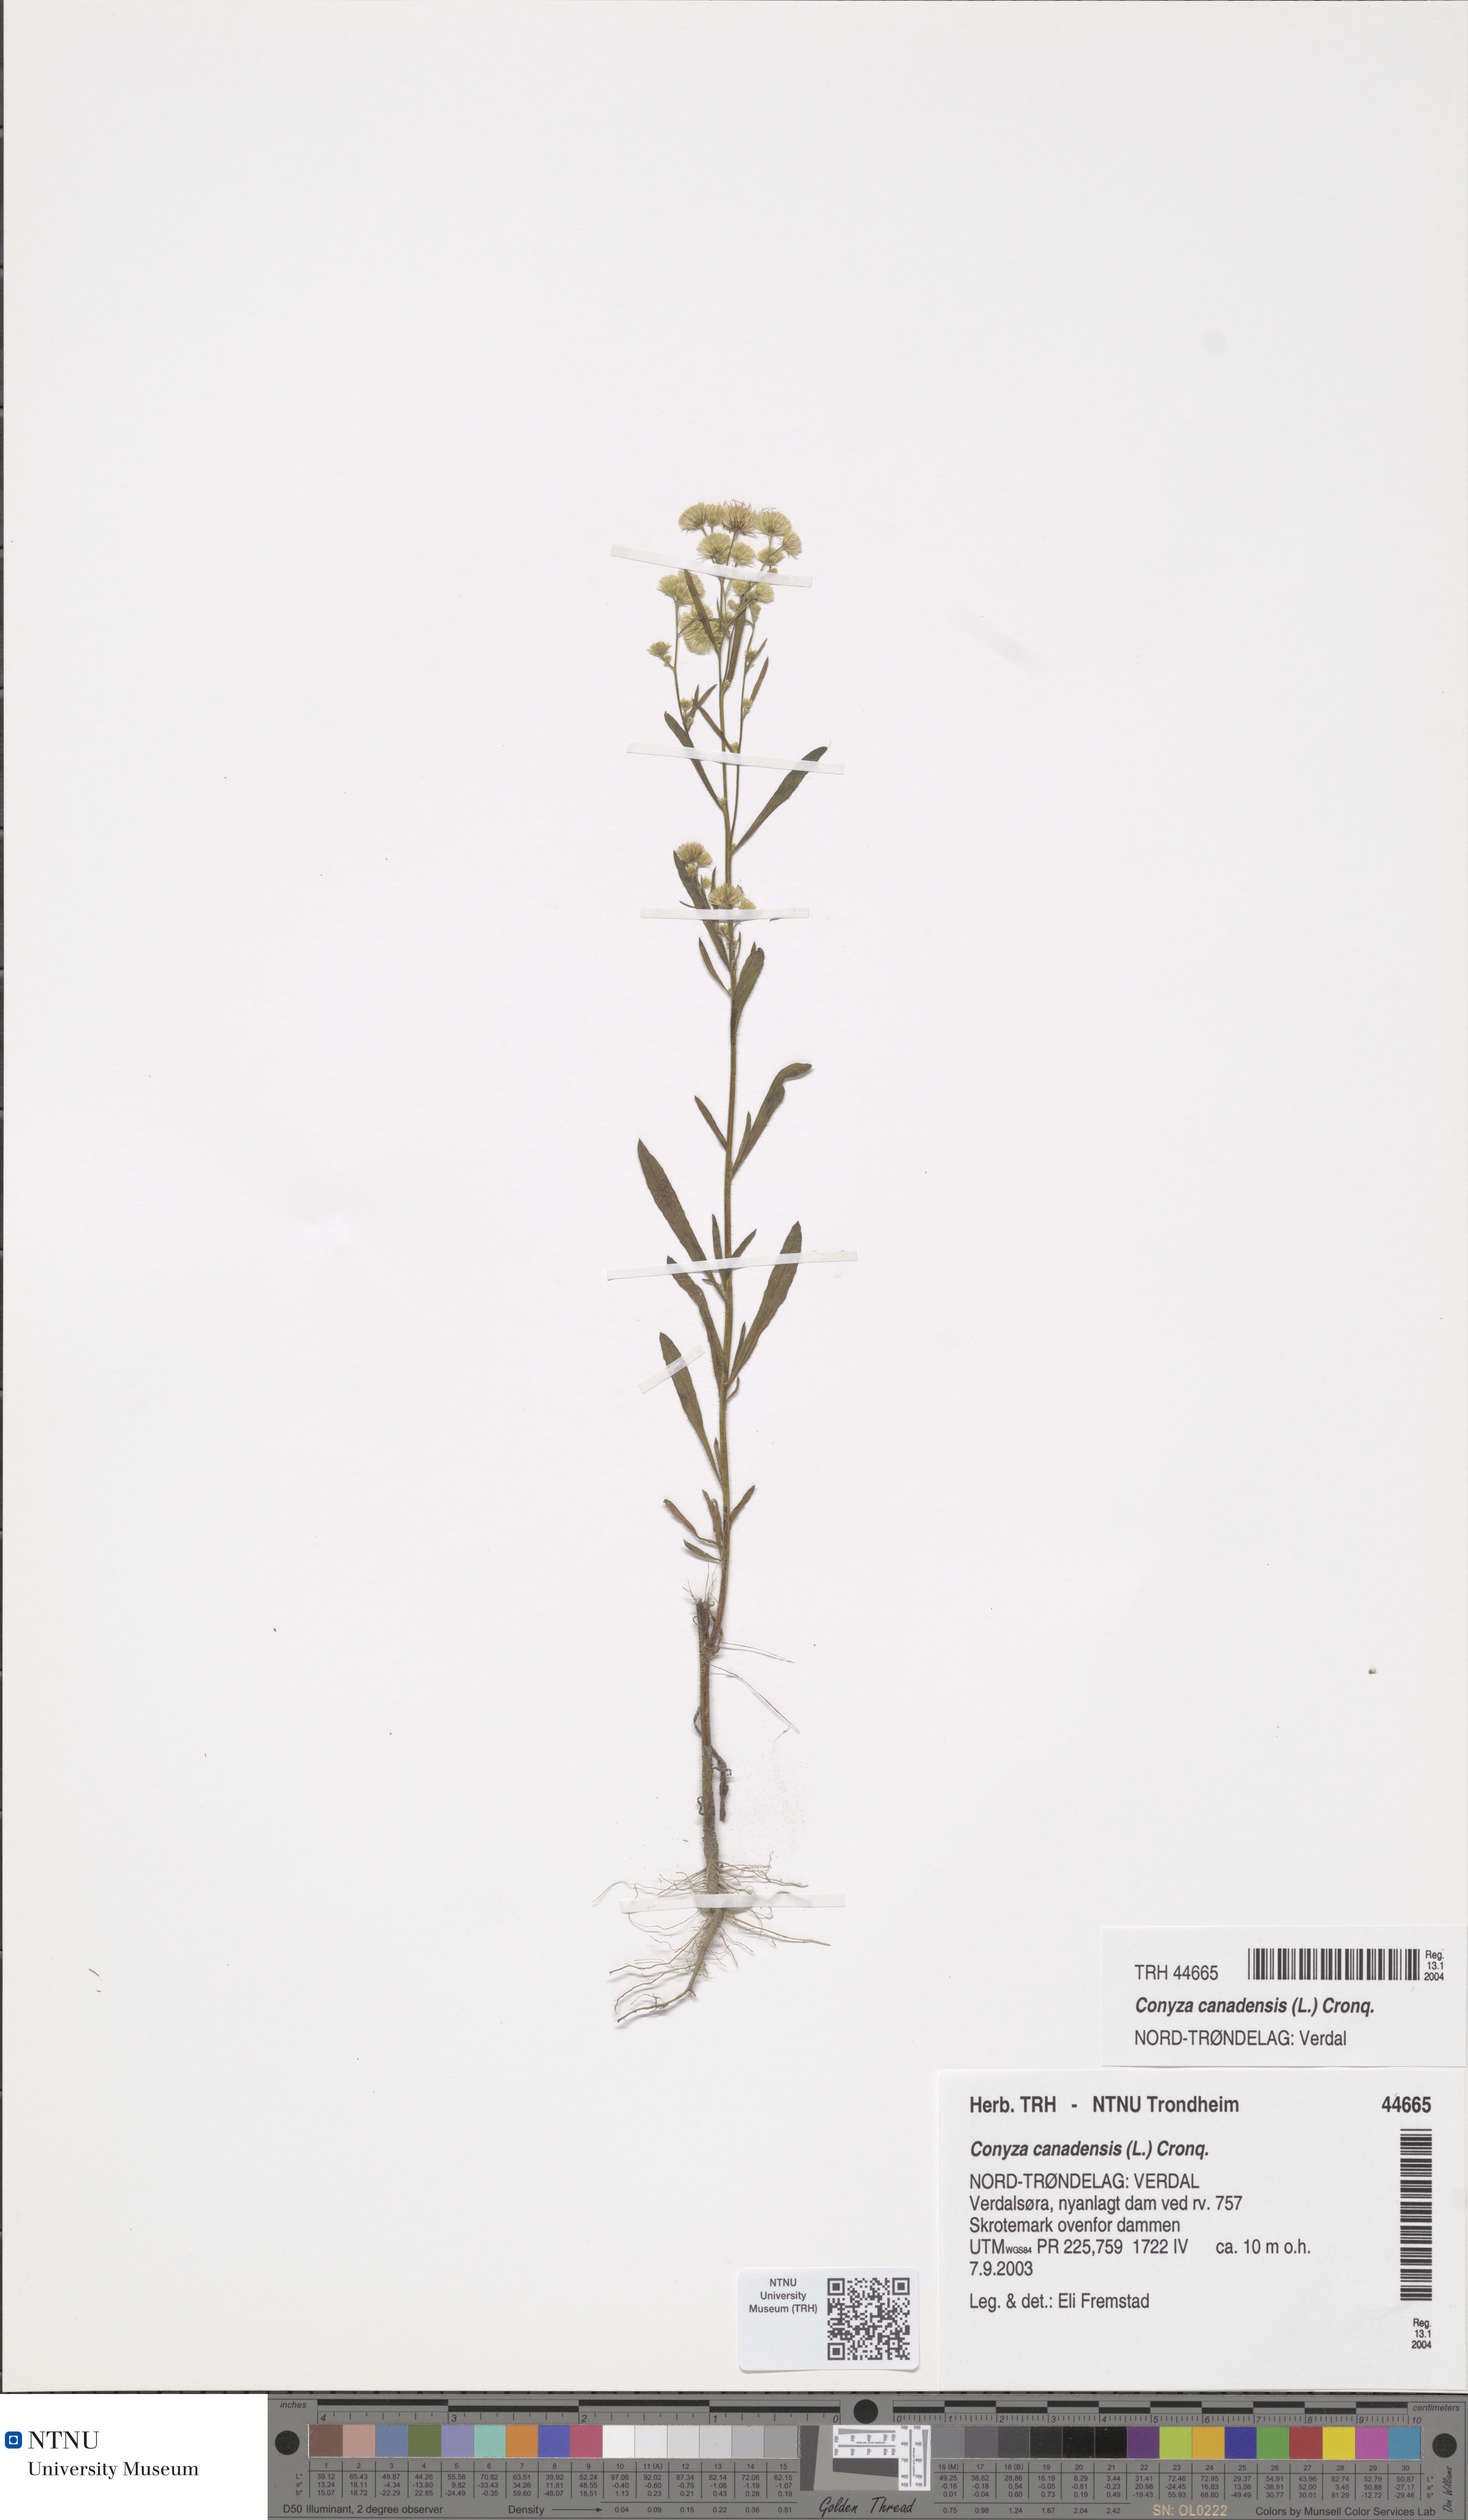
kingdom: Plantae
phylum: Tracheophyta
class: Magnoliopsida
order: Asterales
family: Asteraceae
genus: Erigeron
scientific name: Erigeron canadensis
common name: Canadian fleabane
